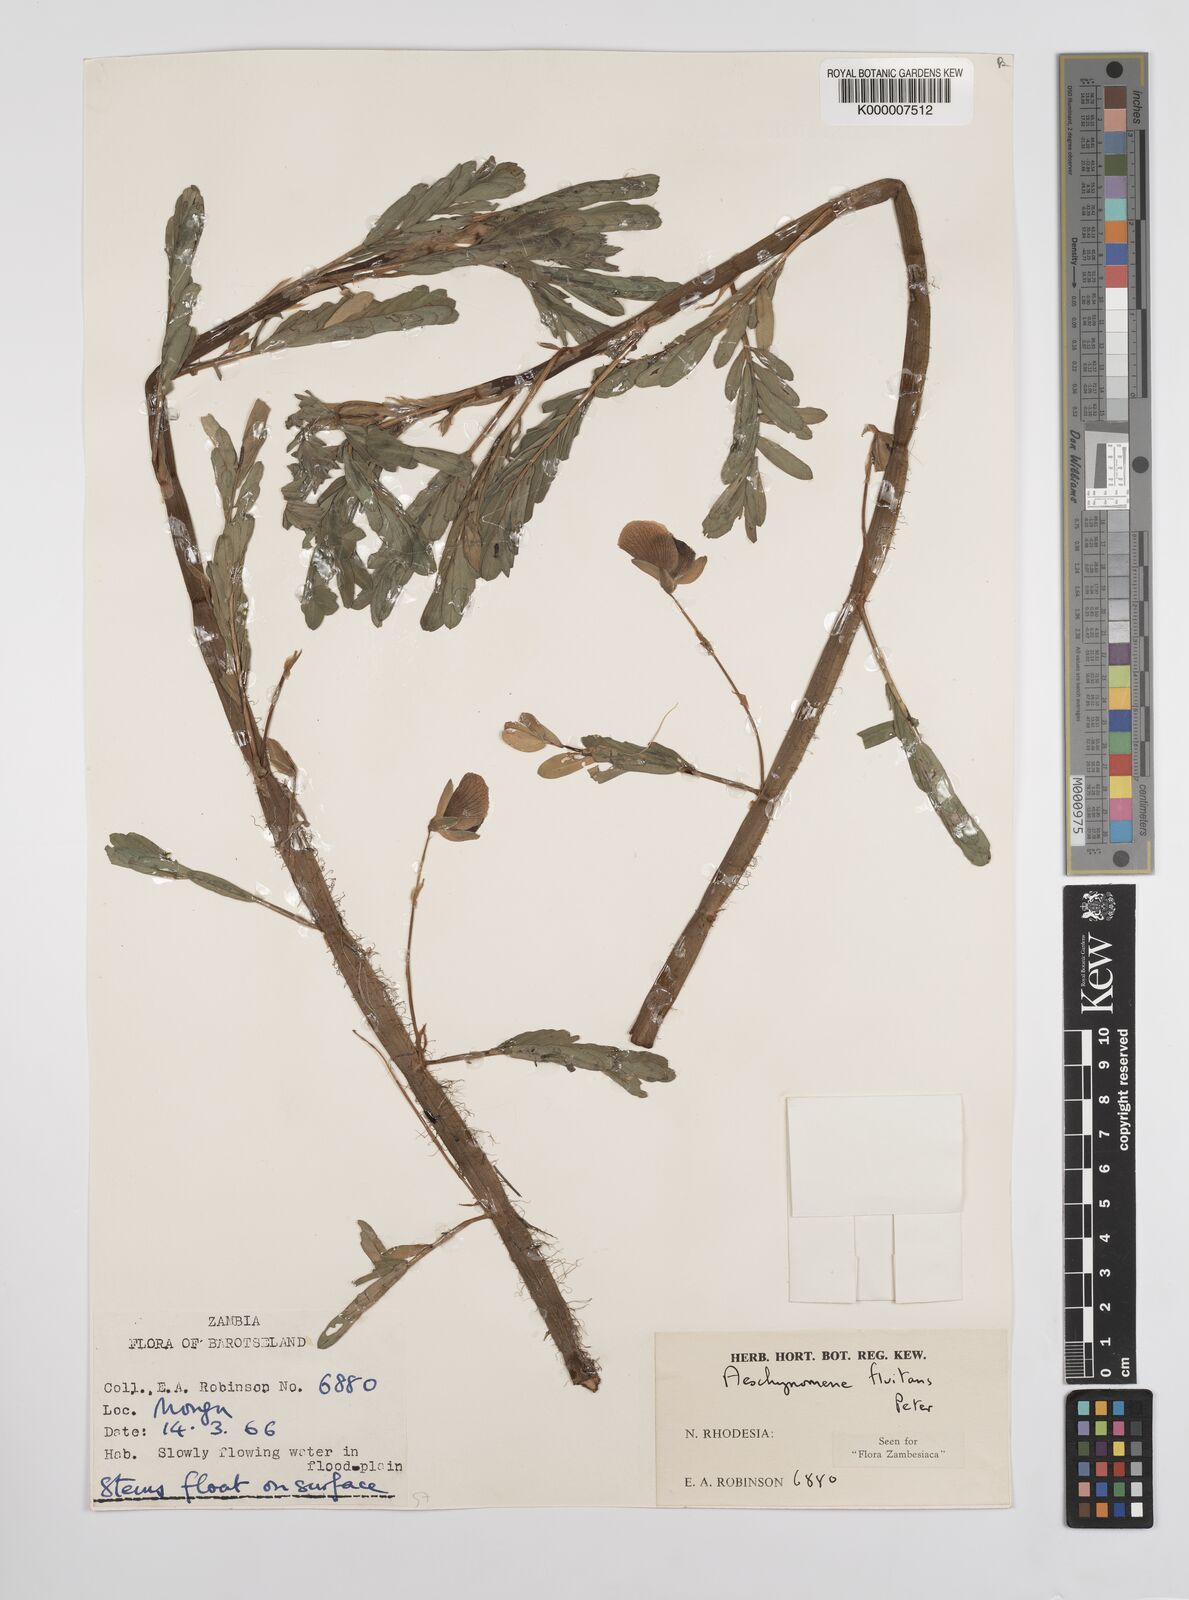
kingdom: Plantae
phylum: Tracheophyta
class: Magnoliopsida
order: Fabales
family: Fabaceae
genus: Aeschynomene
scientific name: Aeschynomene fluitans
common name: Giant water sensitive plant
